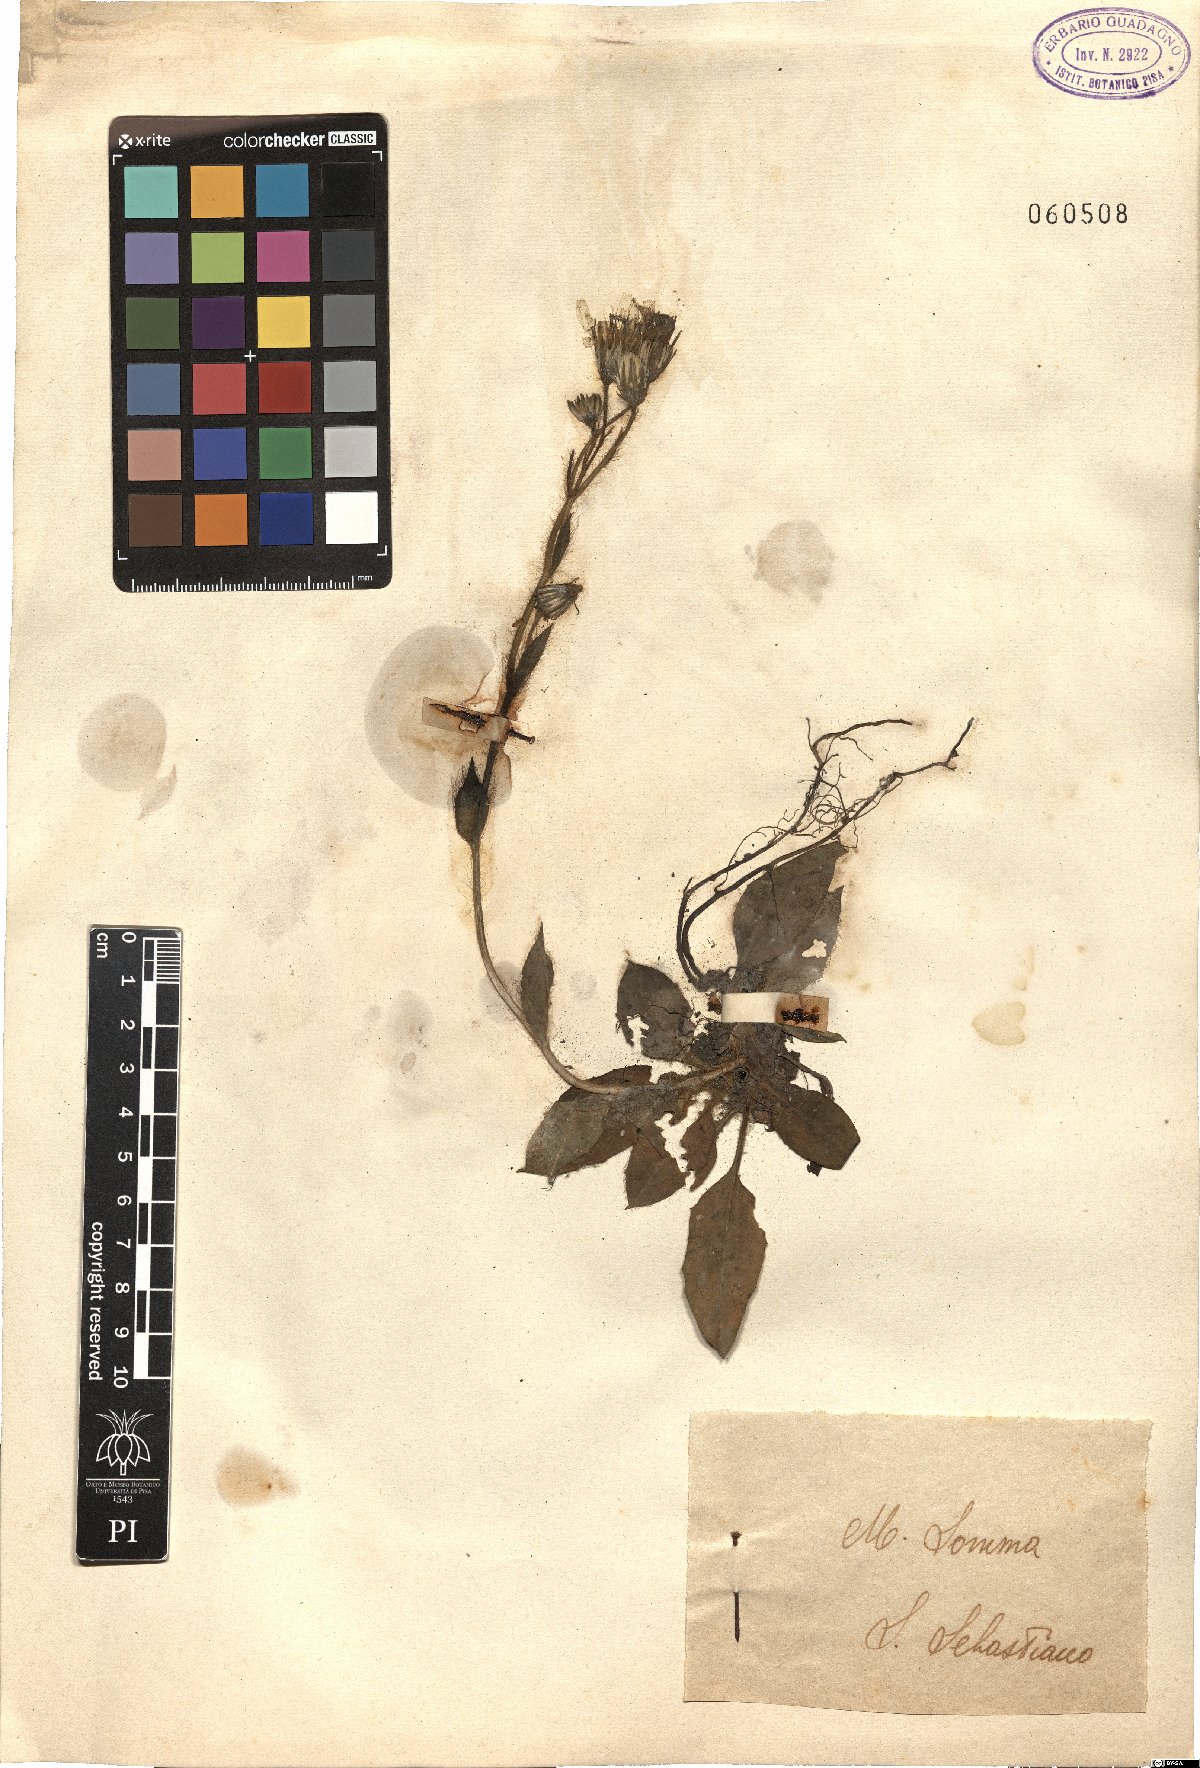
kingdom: Plantae
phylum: Tracheophyta
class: Magnoliopsida
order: Asterales
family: Asteraceae
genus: Hieracium
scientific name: Hieracium
